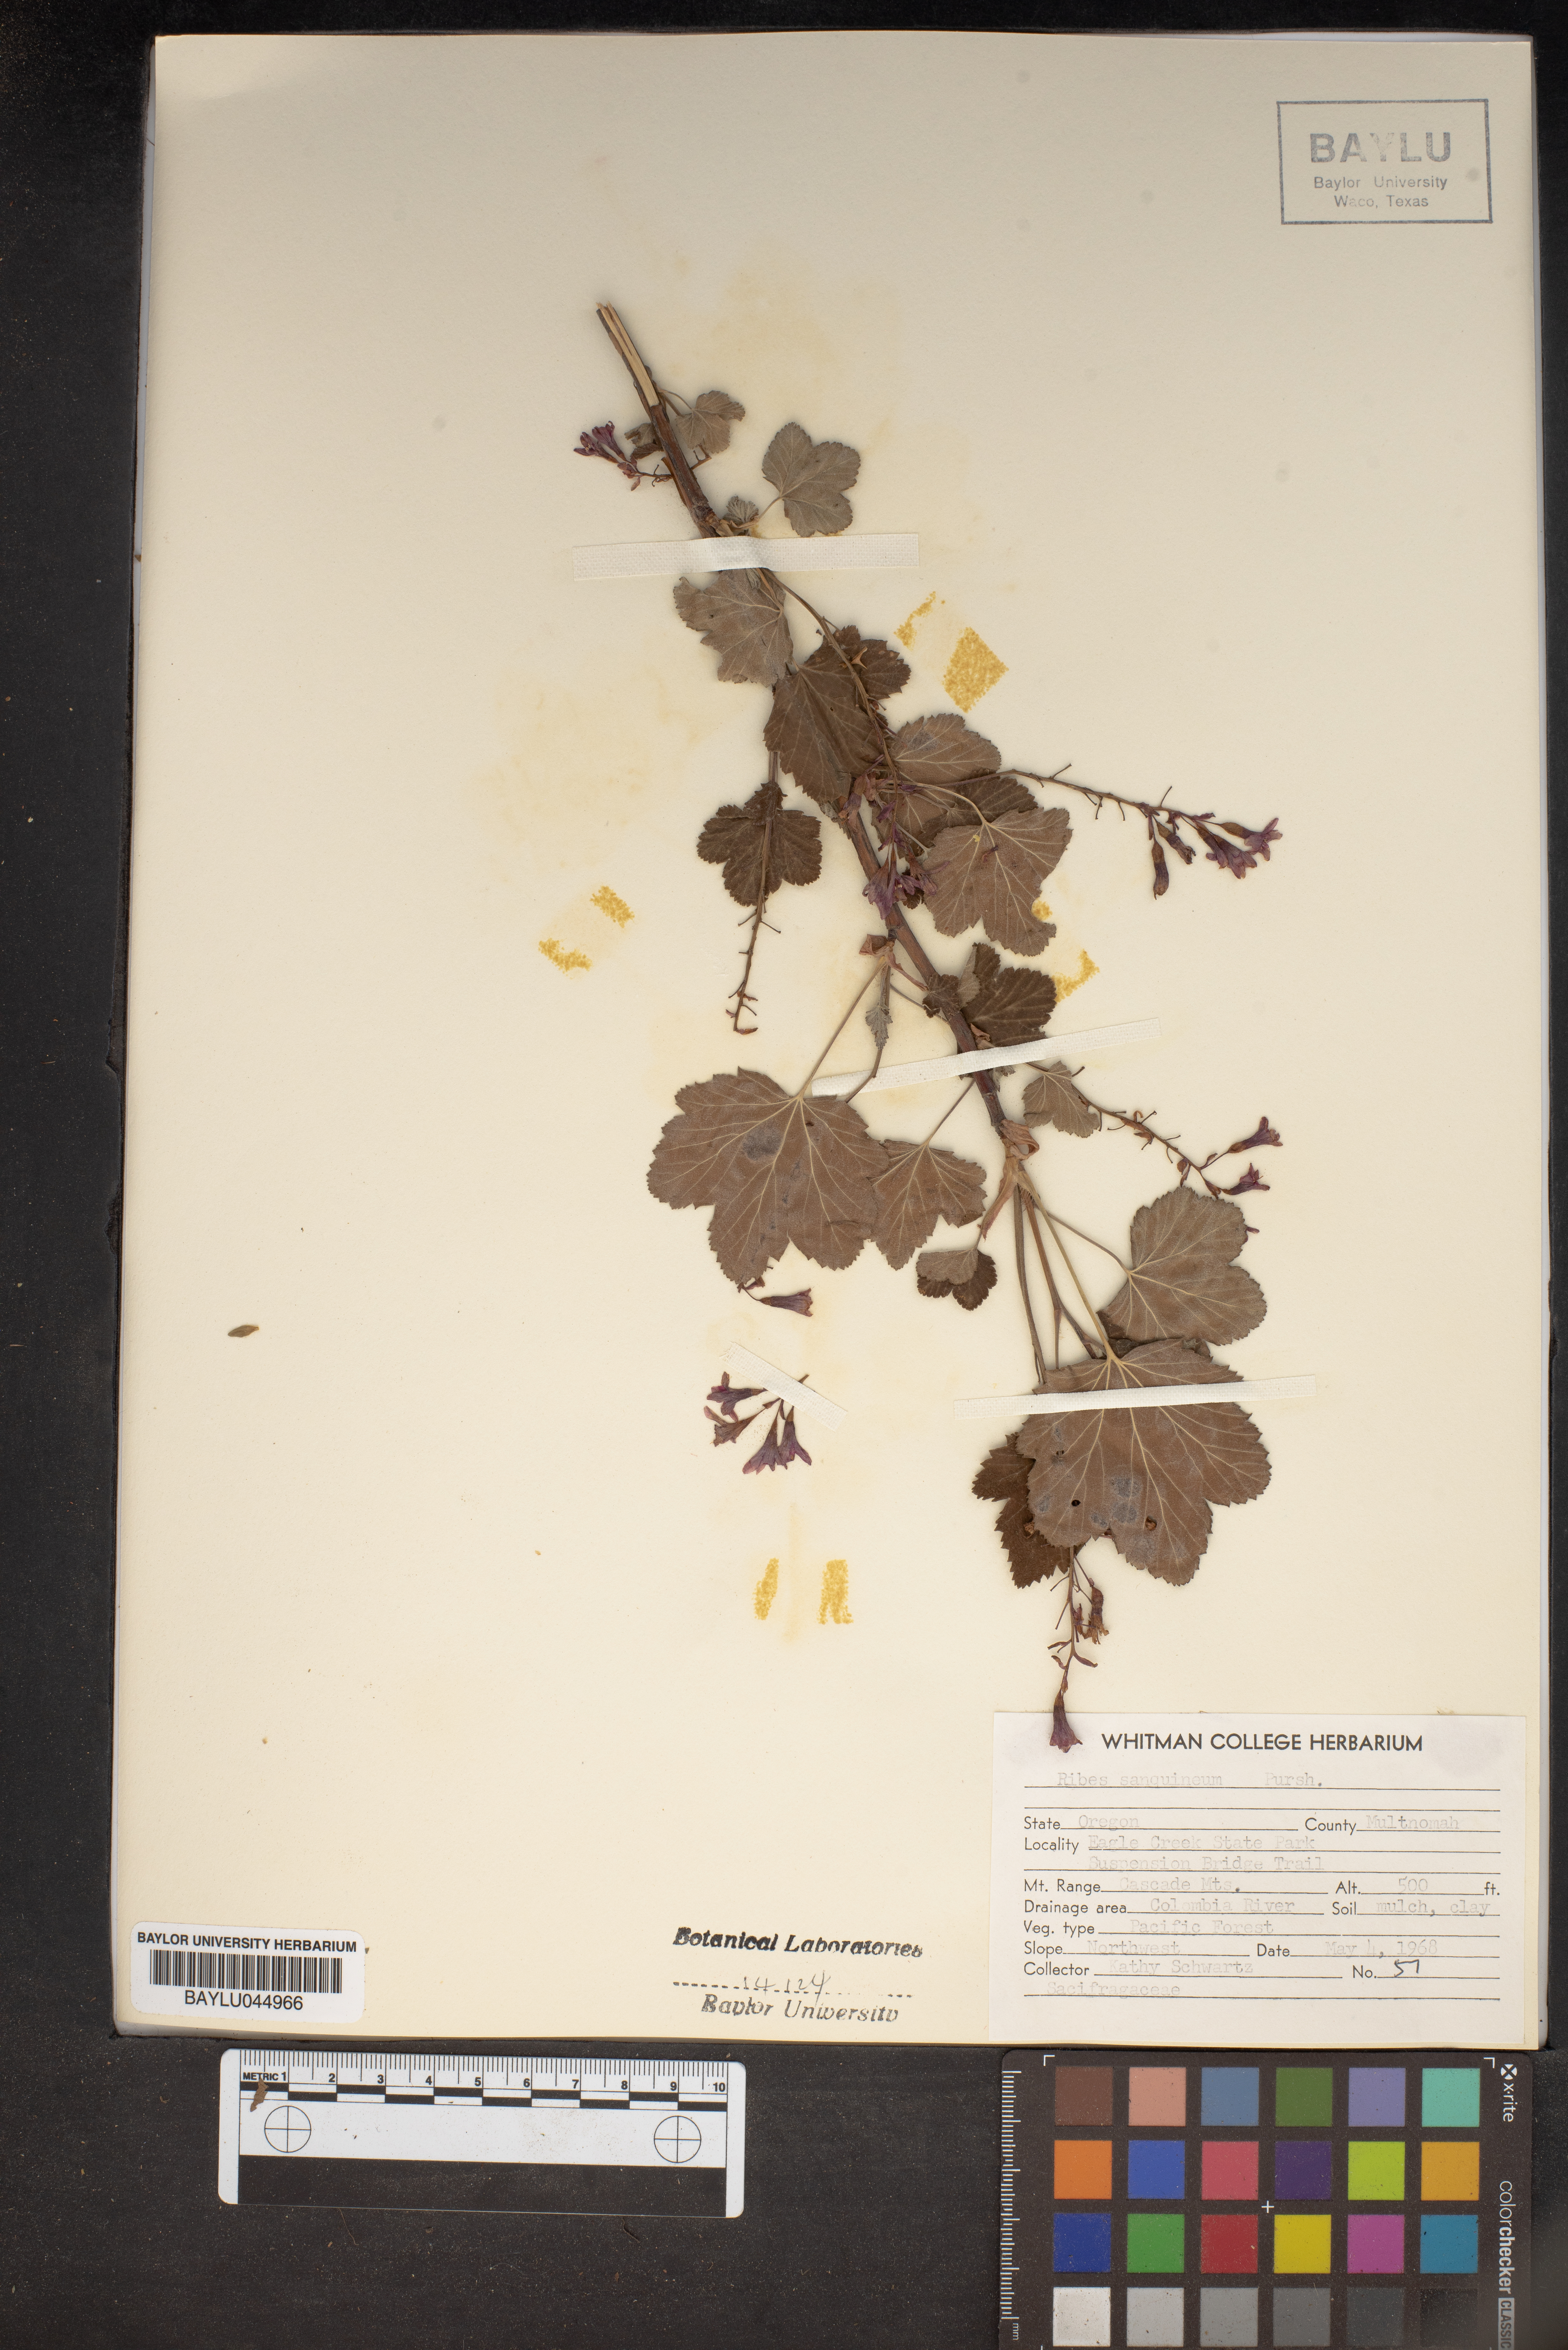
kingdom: Plantae
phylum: Tracheophyta
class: Magnoliopsida
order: Saxifragales
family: Grossulariaceae
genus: Ribes
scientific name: Ribes sanguineum
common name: Flowering currant
